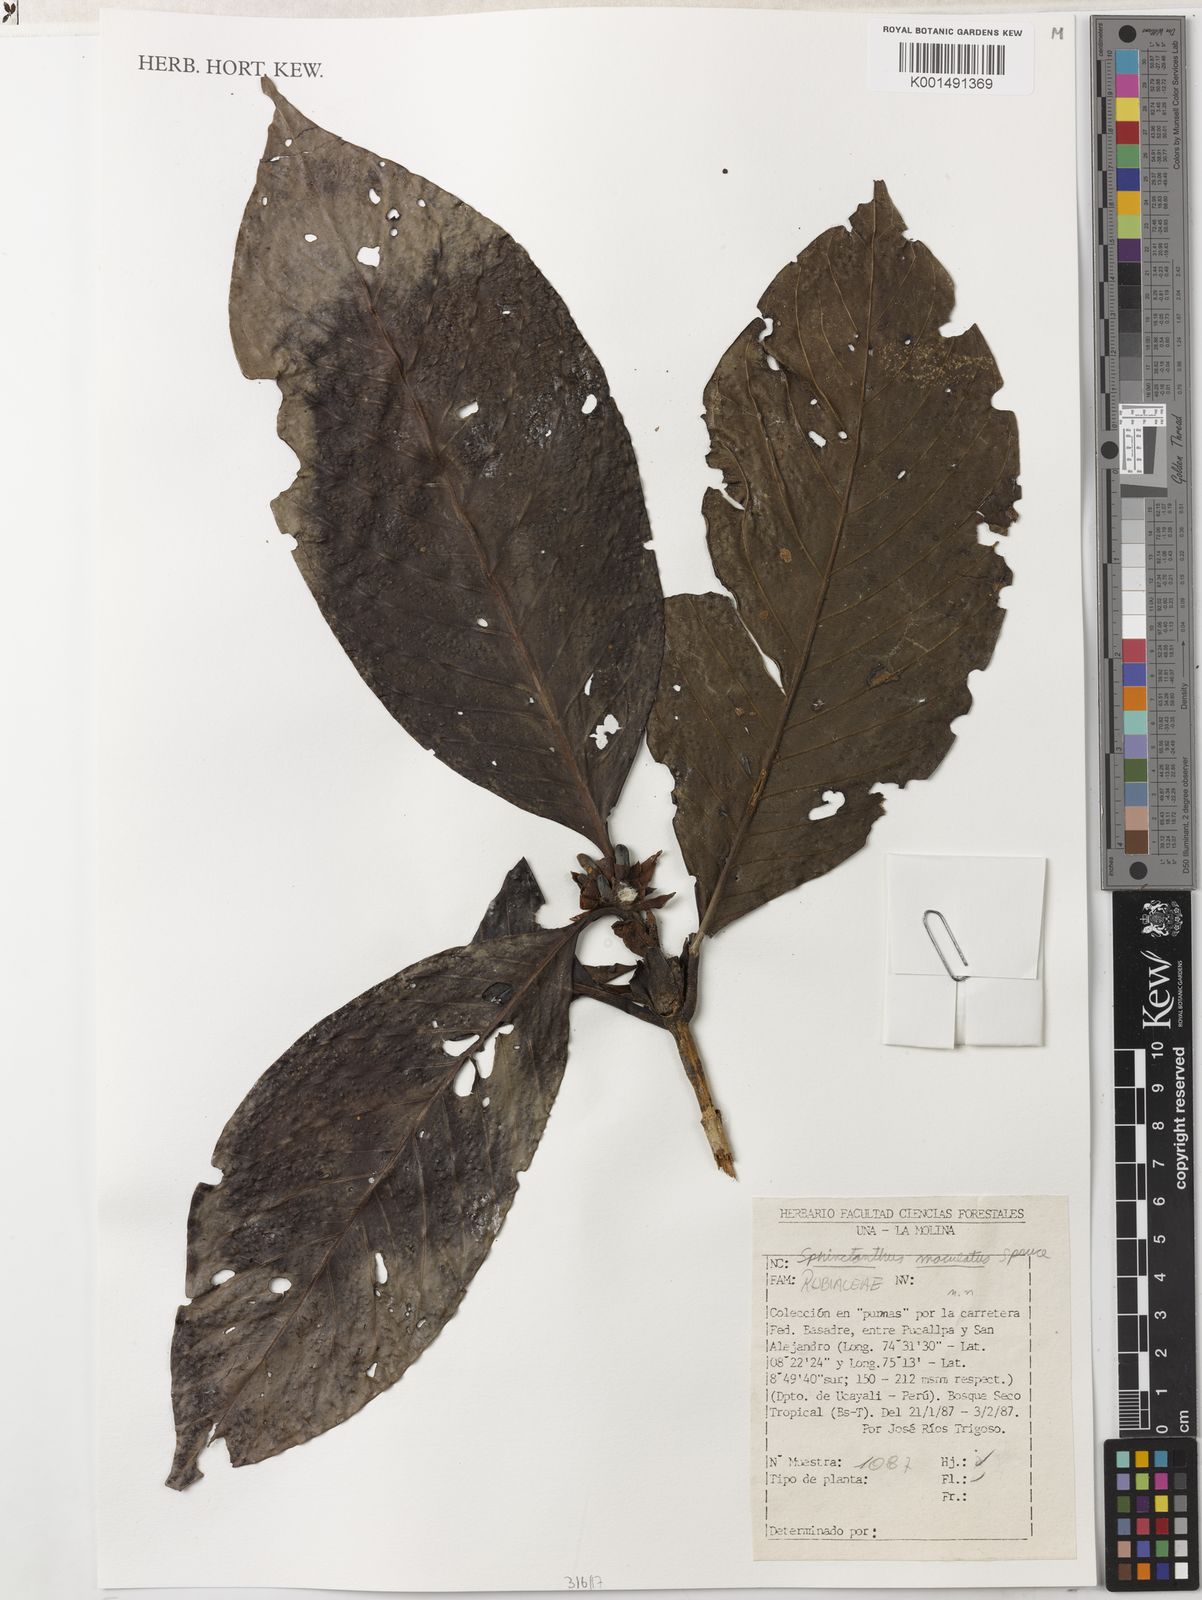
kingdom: Plantae
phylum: Tracheophyta
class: Magnoliopsida
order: Gentianales
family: Rubiaceae
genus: Sphinctanthus
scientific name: Sphinctanthus maculatus
